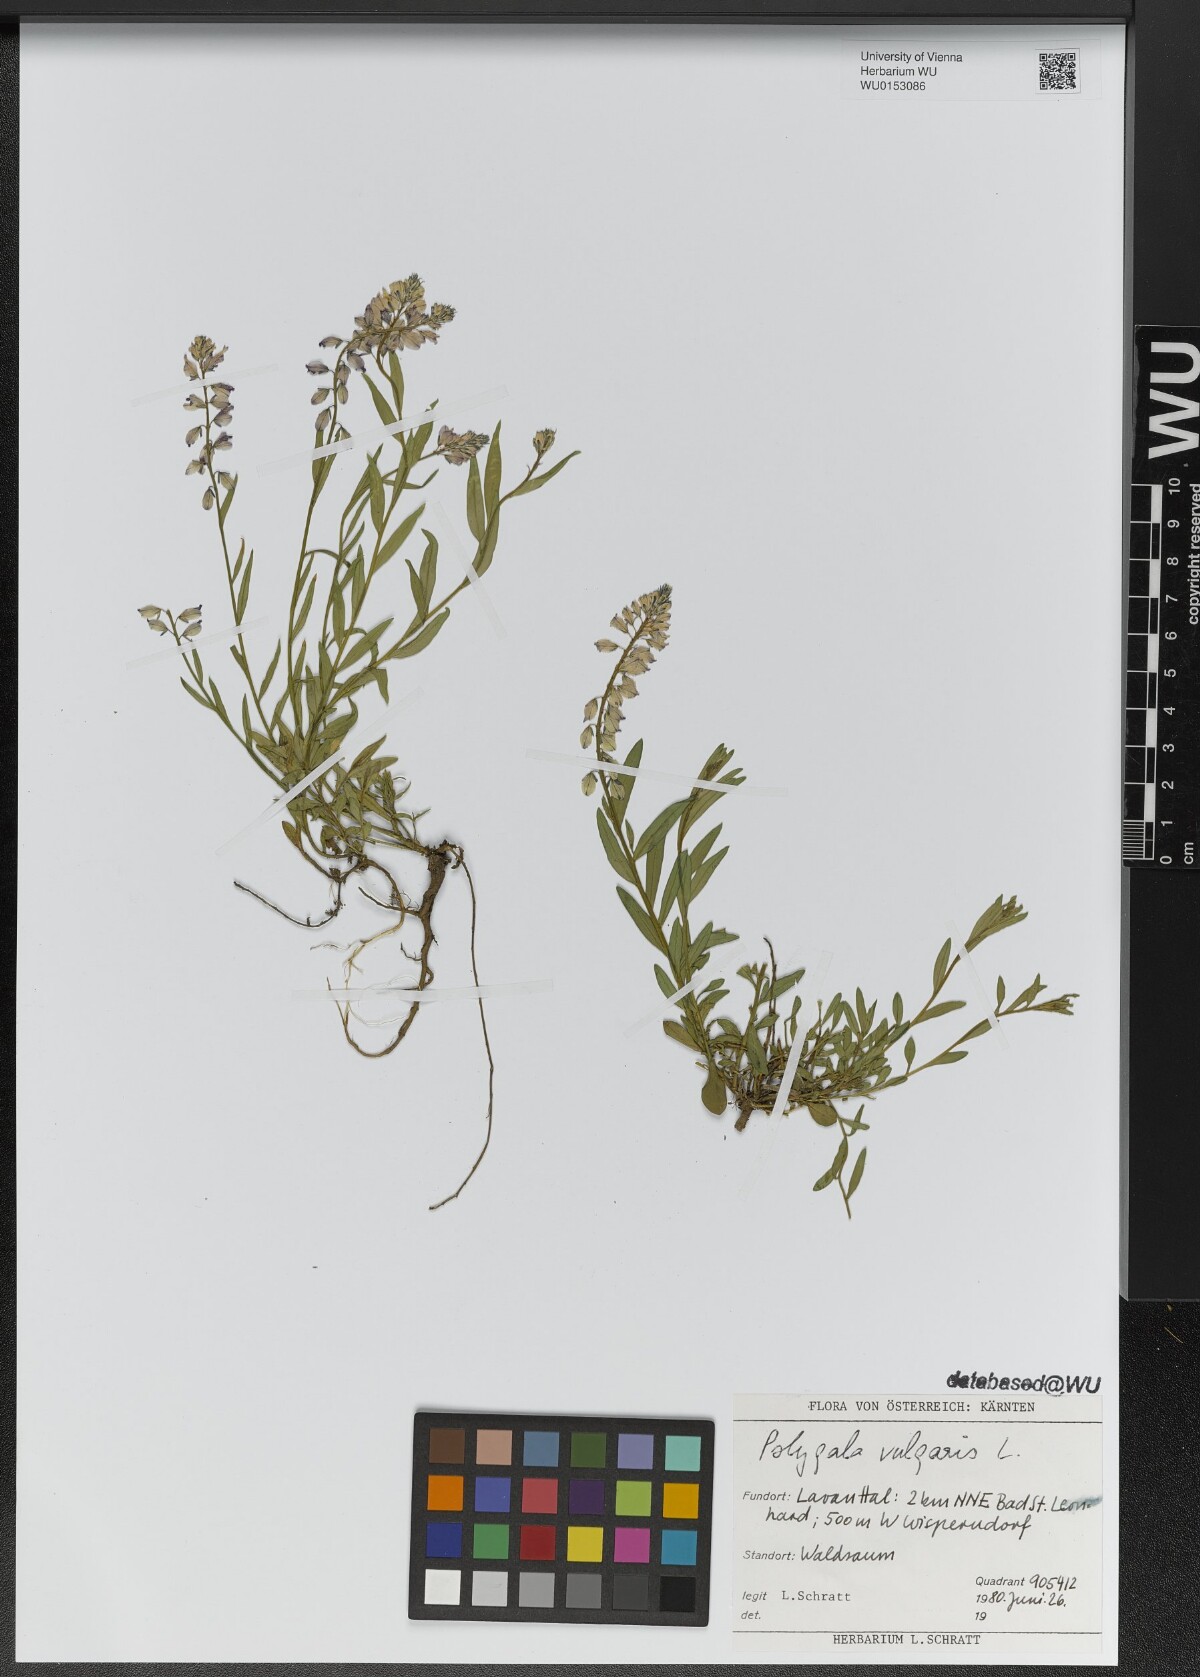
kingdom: Plantae
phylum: Tracheophyta
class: Magnoliopsida
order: Fabales
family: Polygalaceae
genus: Polygala
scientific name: Polygala vulgaris
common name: Common milkwort
